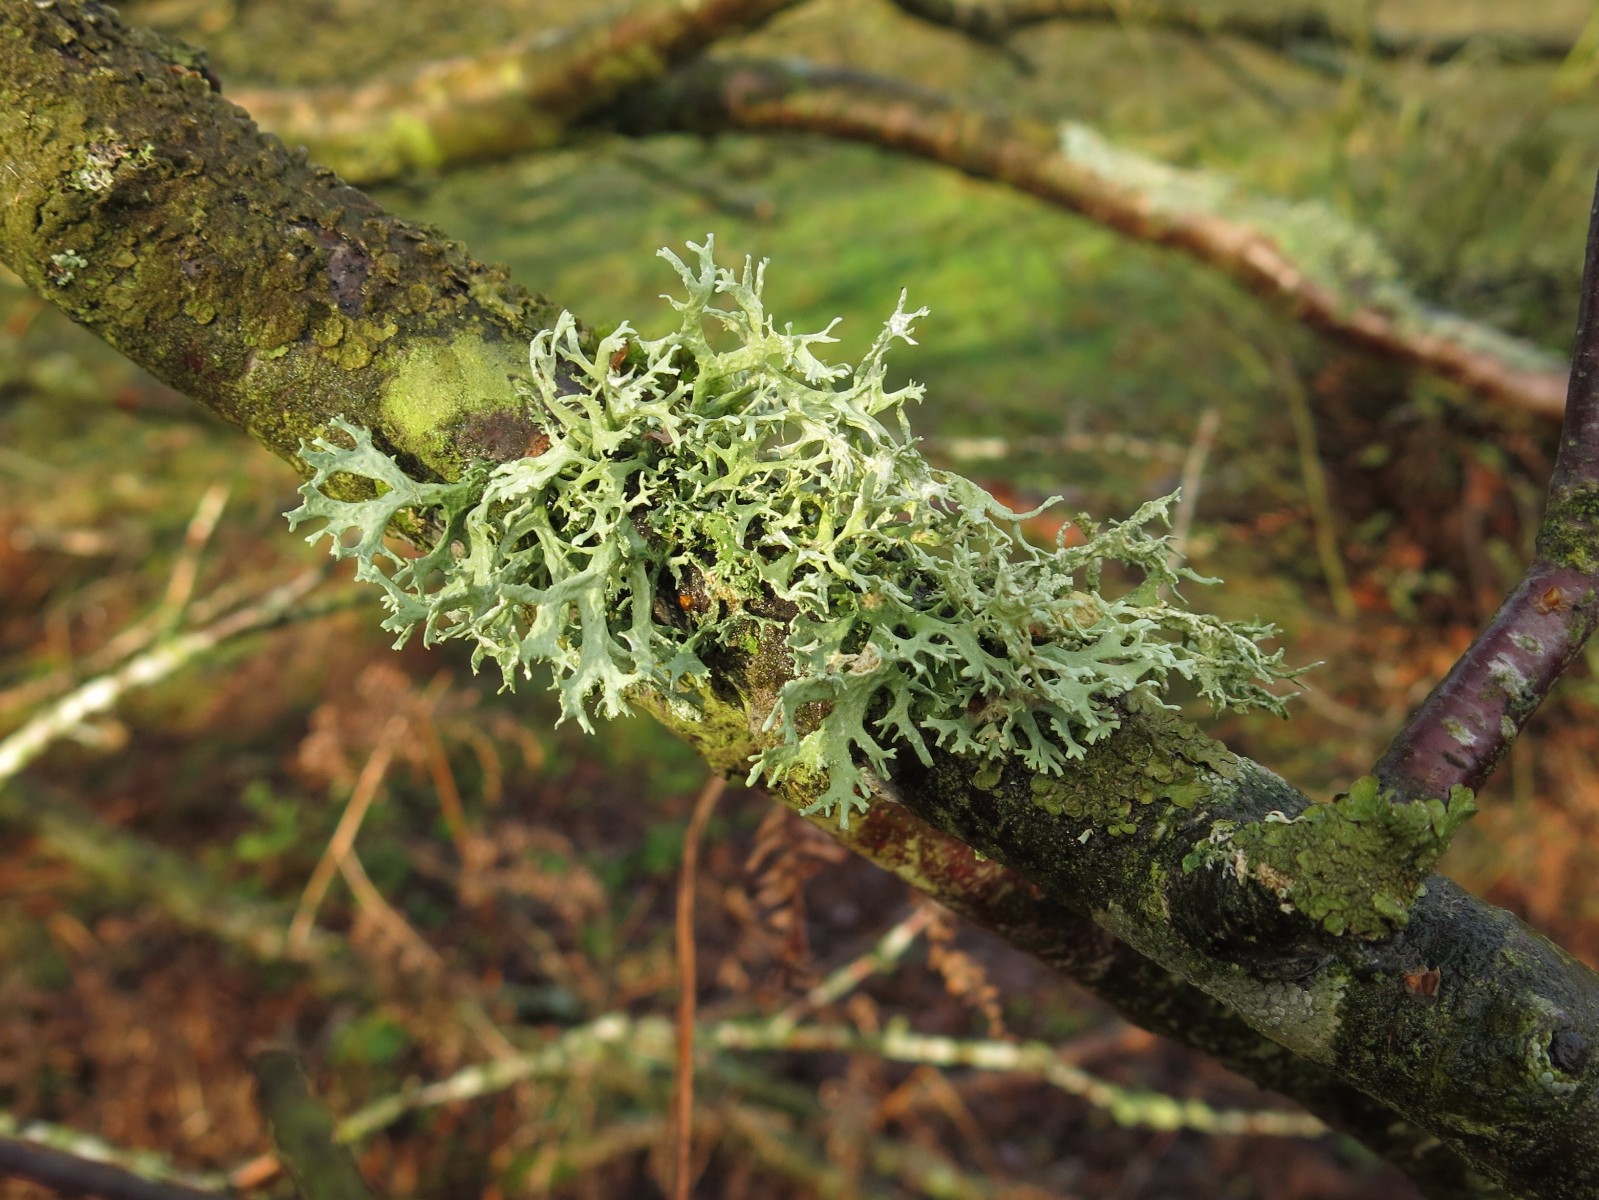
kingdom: Fungi
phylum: Ascomycota
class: Lecanoromycetes
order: Lecanorales
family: Parmeliaceae
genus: Evernia
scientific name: Evernia prunastri
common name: almindelig slåenlav
